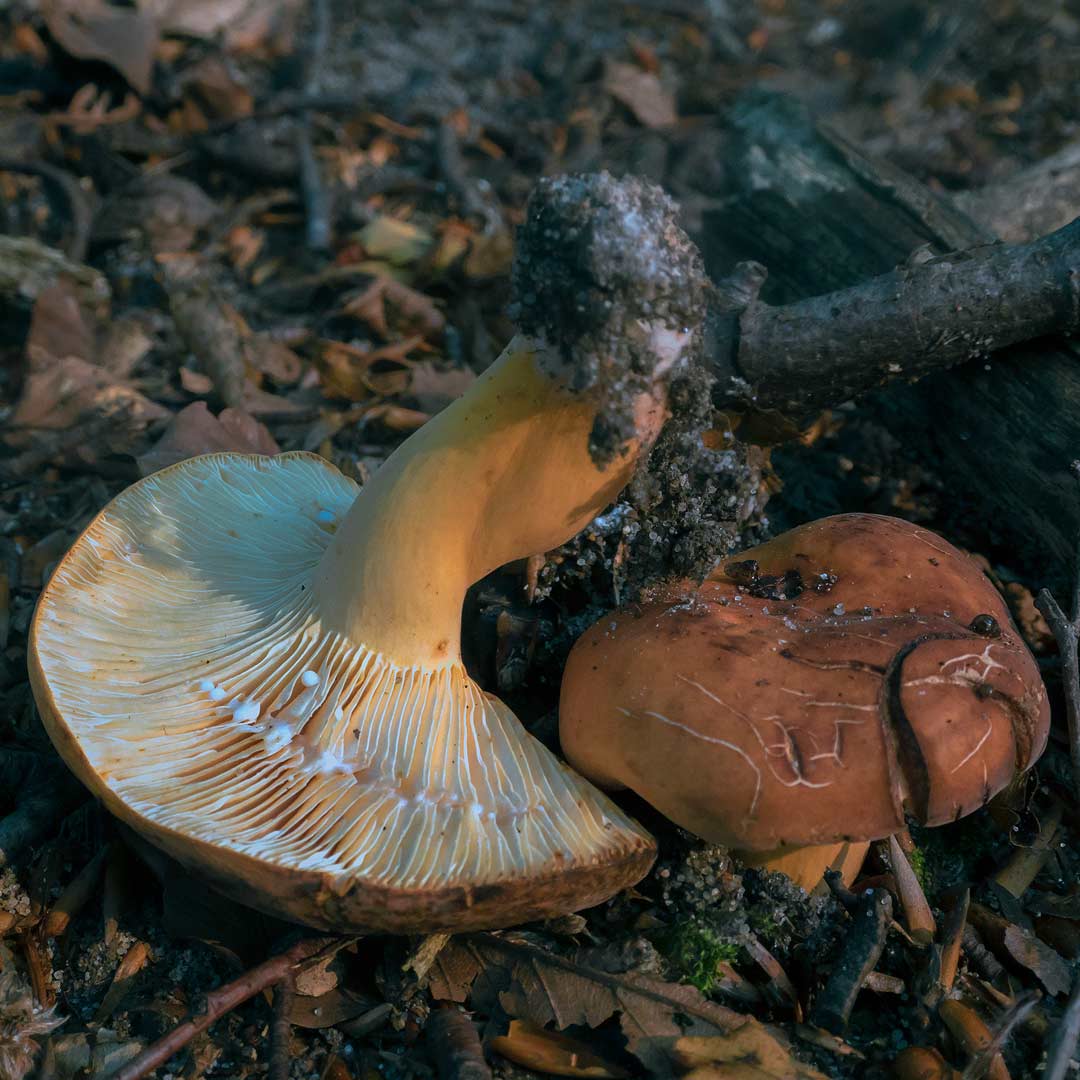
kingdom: Fungi
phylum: Basidiomycota
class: Agaricomycetes
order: Russulales
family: Russulaceae
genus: Lactifluus
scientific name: Lactifluus volemus
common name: spiselig mælkehat
